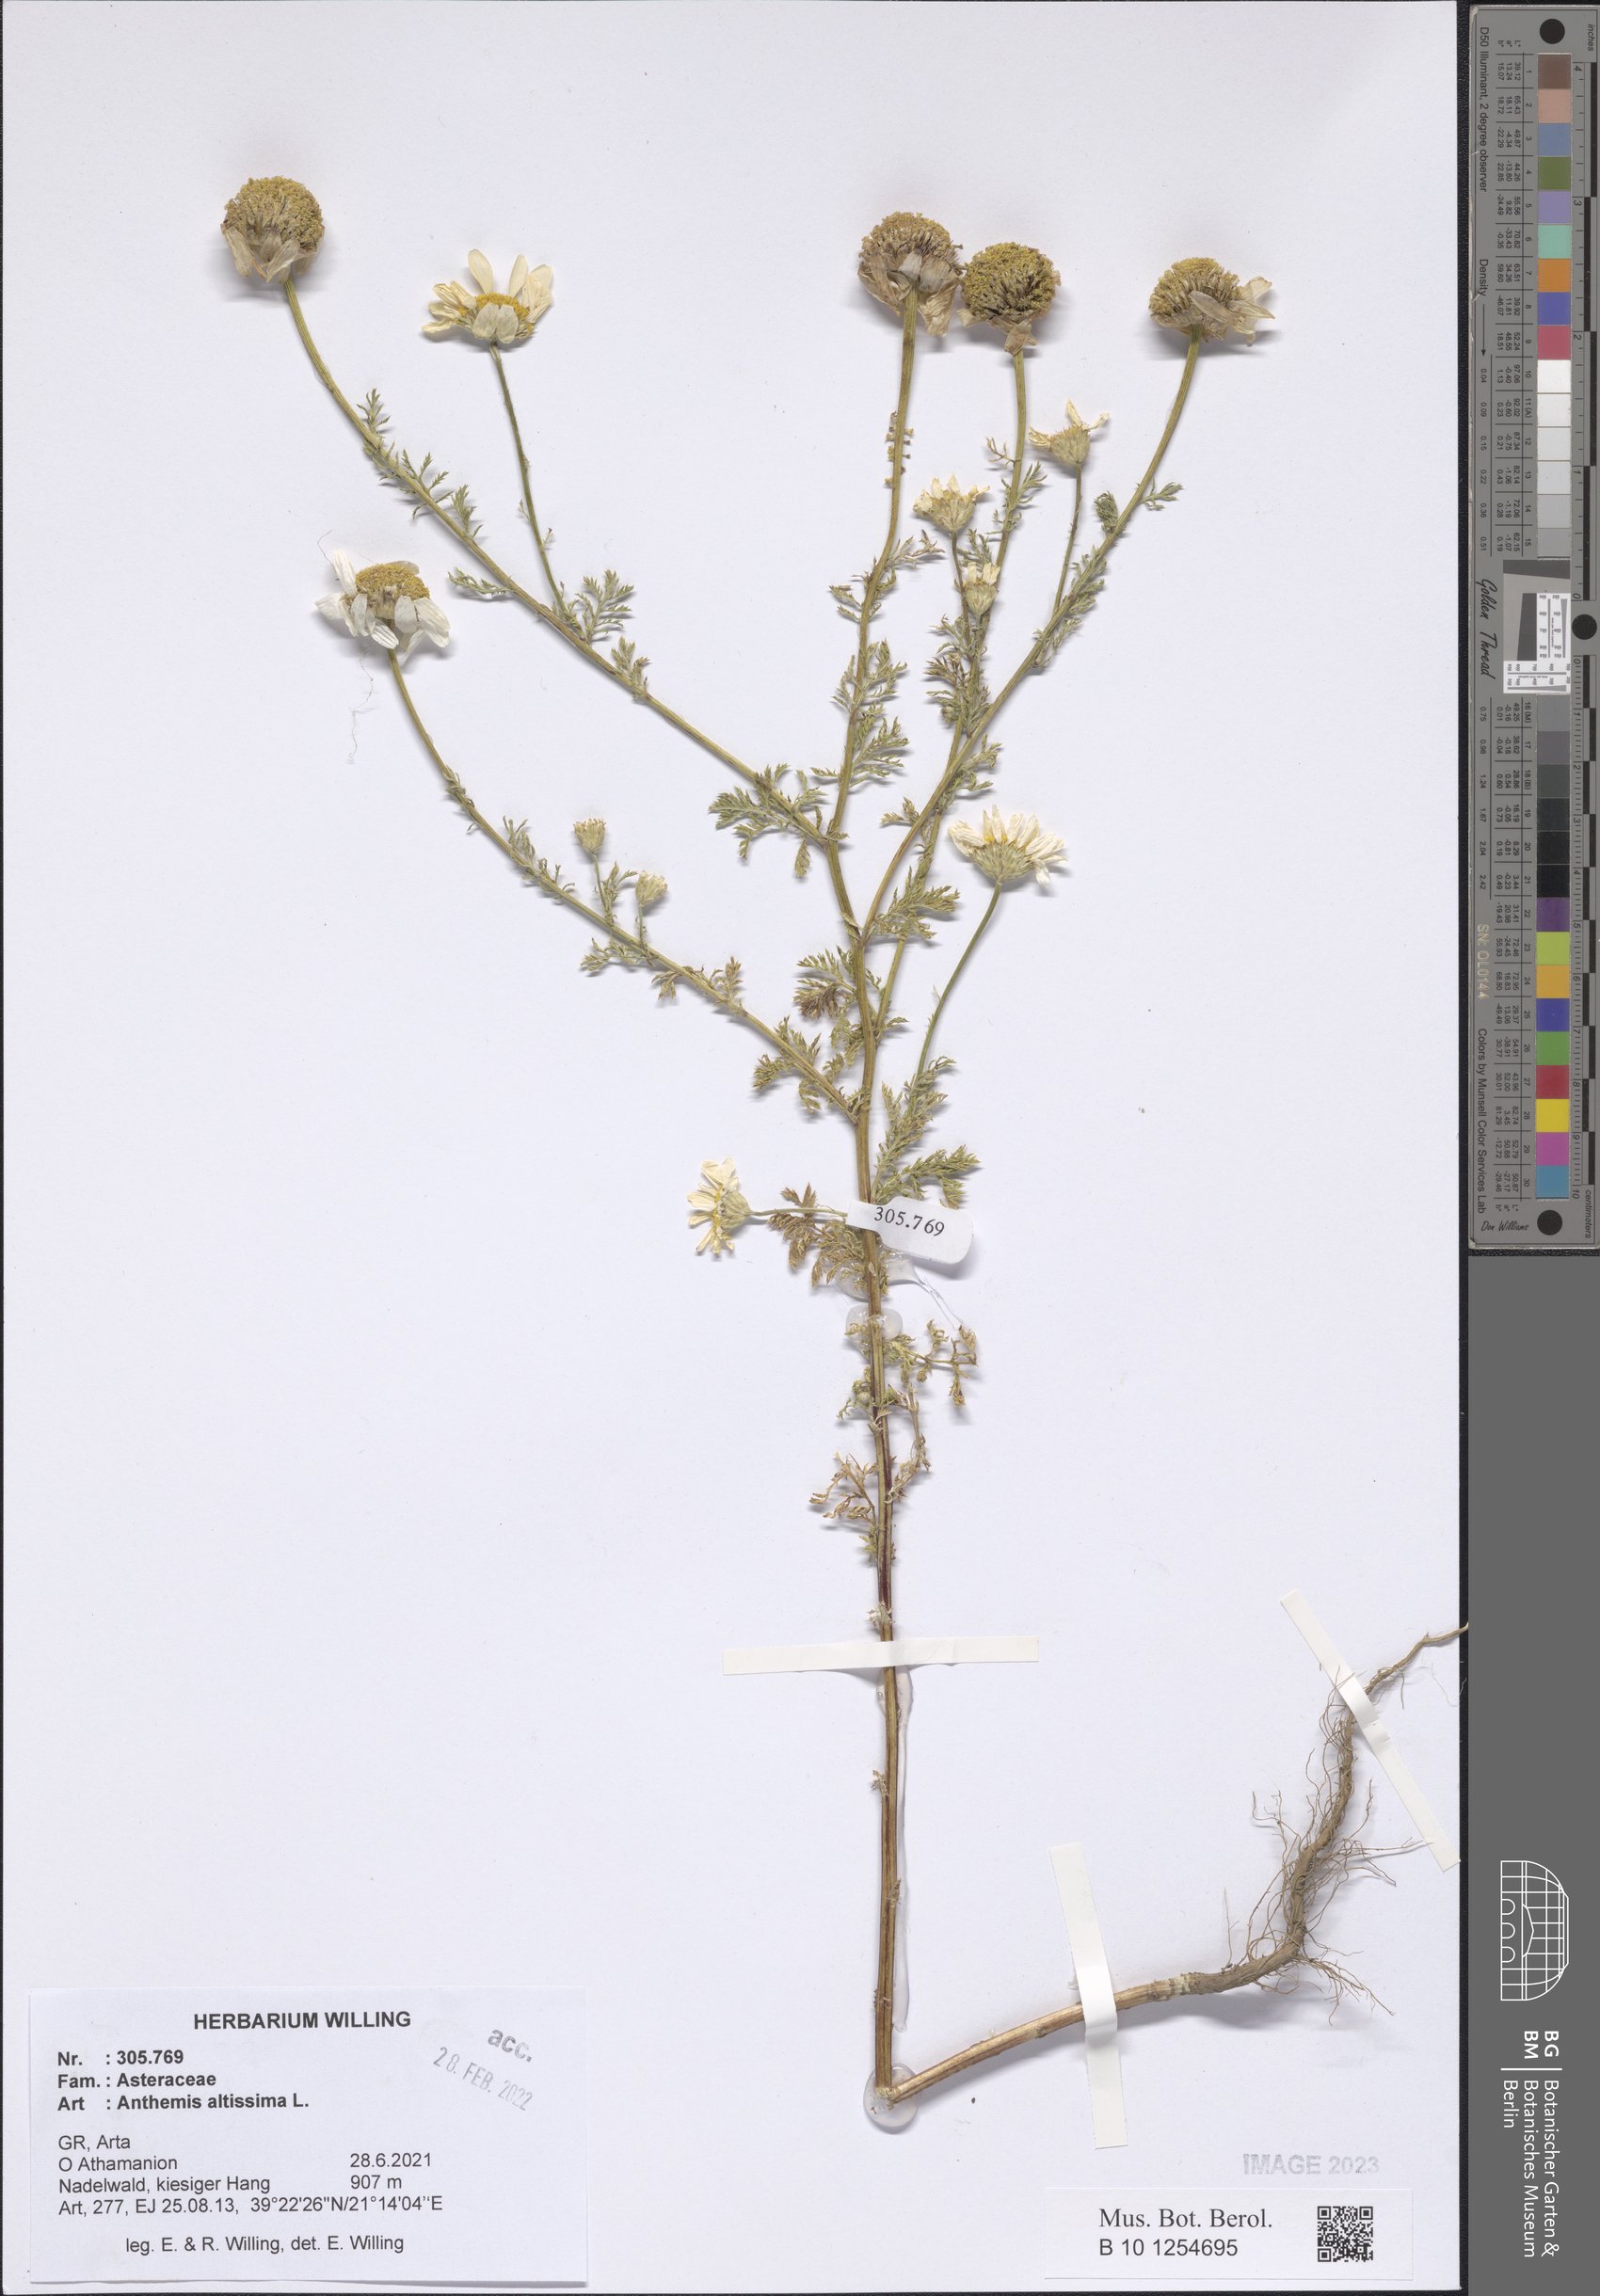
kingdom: Plantae
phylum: Tracheophyta
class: Magnoliopsida
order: Asterales
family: Asteraceae
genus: Cota
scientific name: Cota altissima
